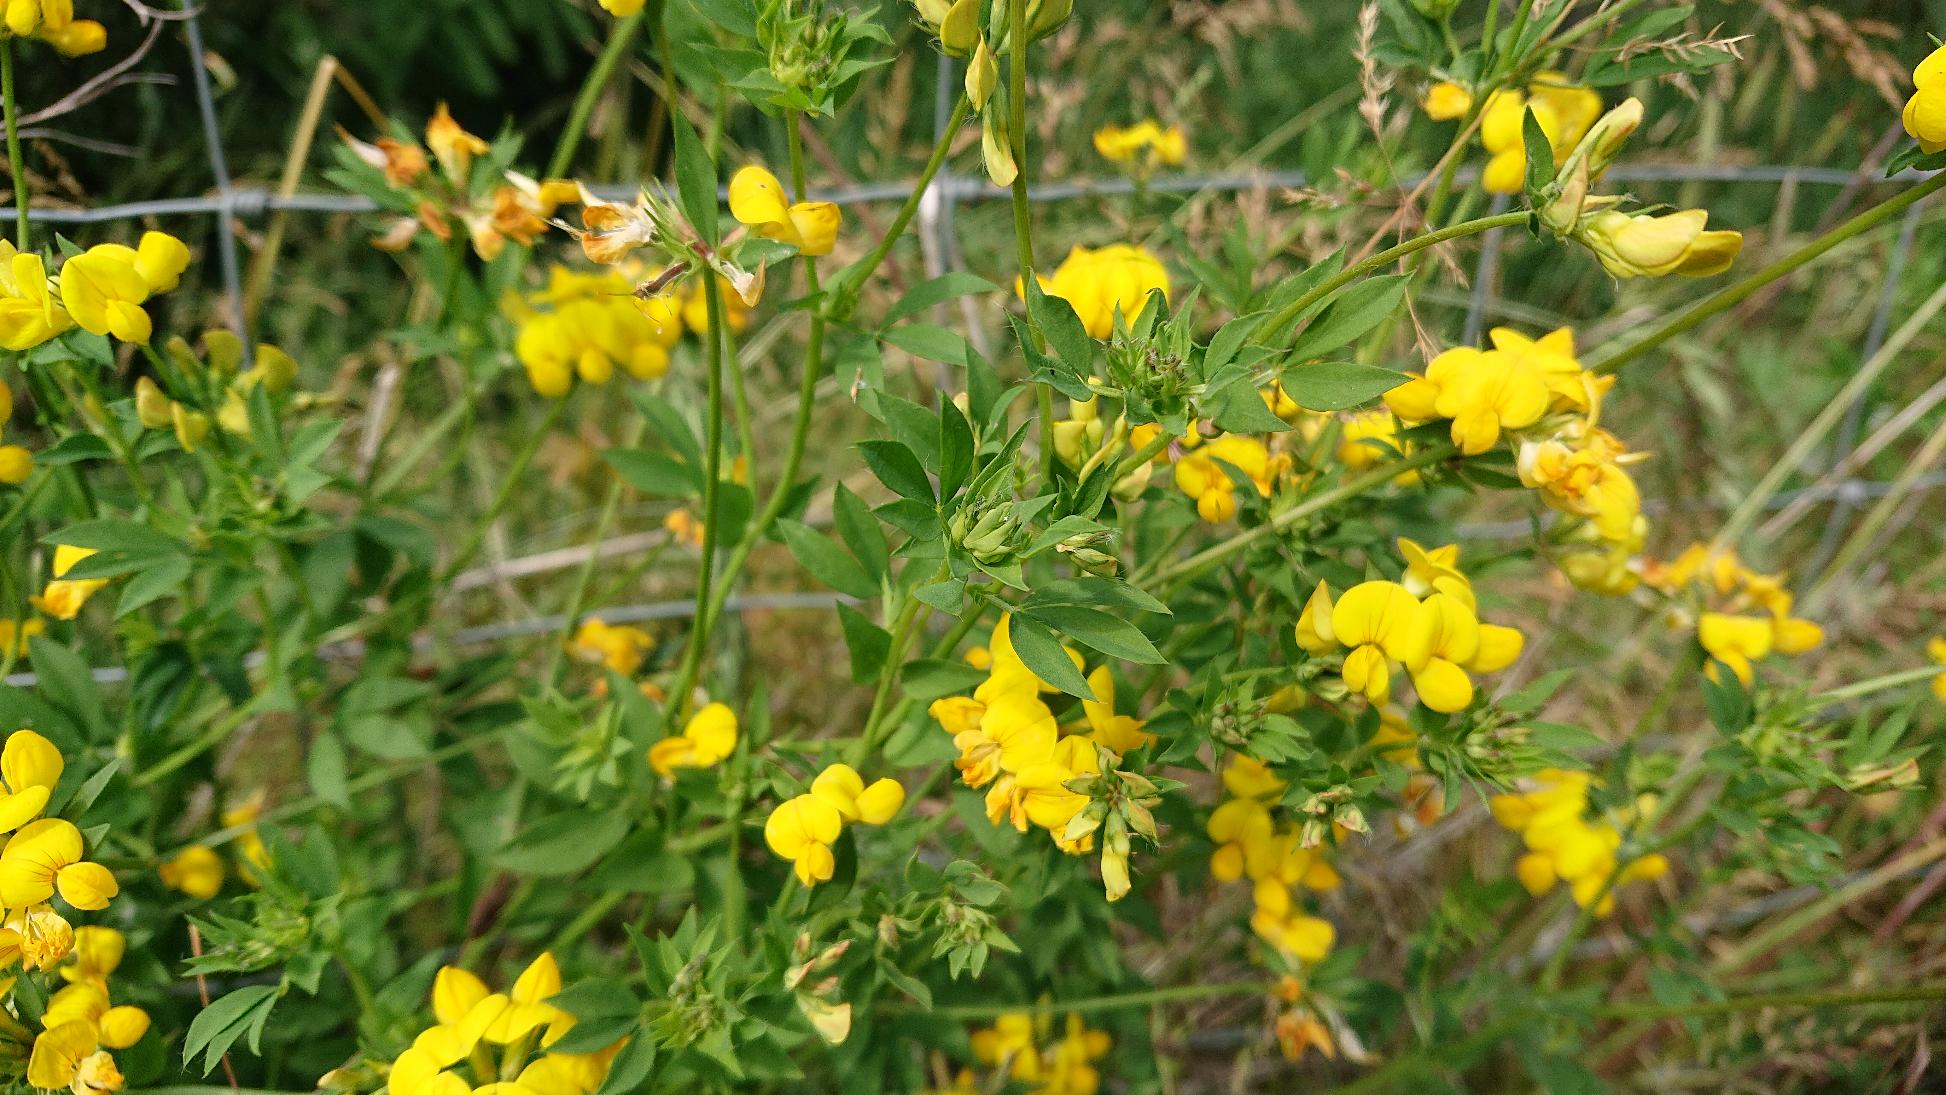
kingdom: Plantae
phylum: Tracheophyta
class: Magnoliopsida
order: Fabales
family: Fabaceae
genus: Lotus
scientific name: Lotus corniculatus
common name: Almindelig kællingetand
